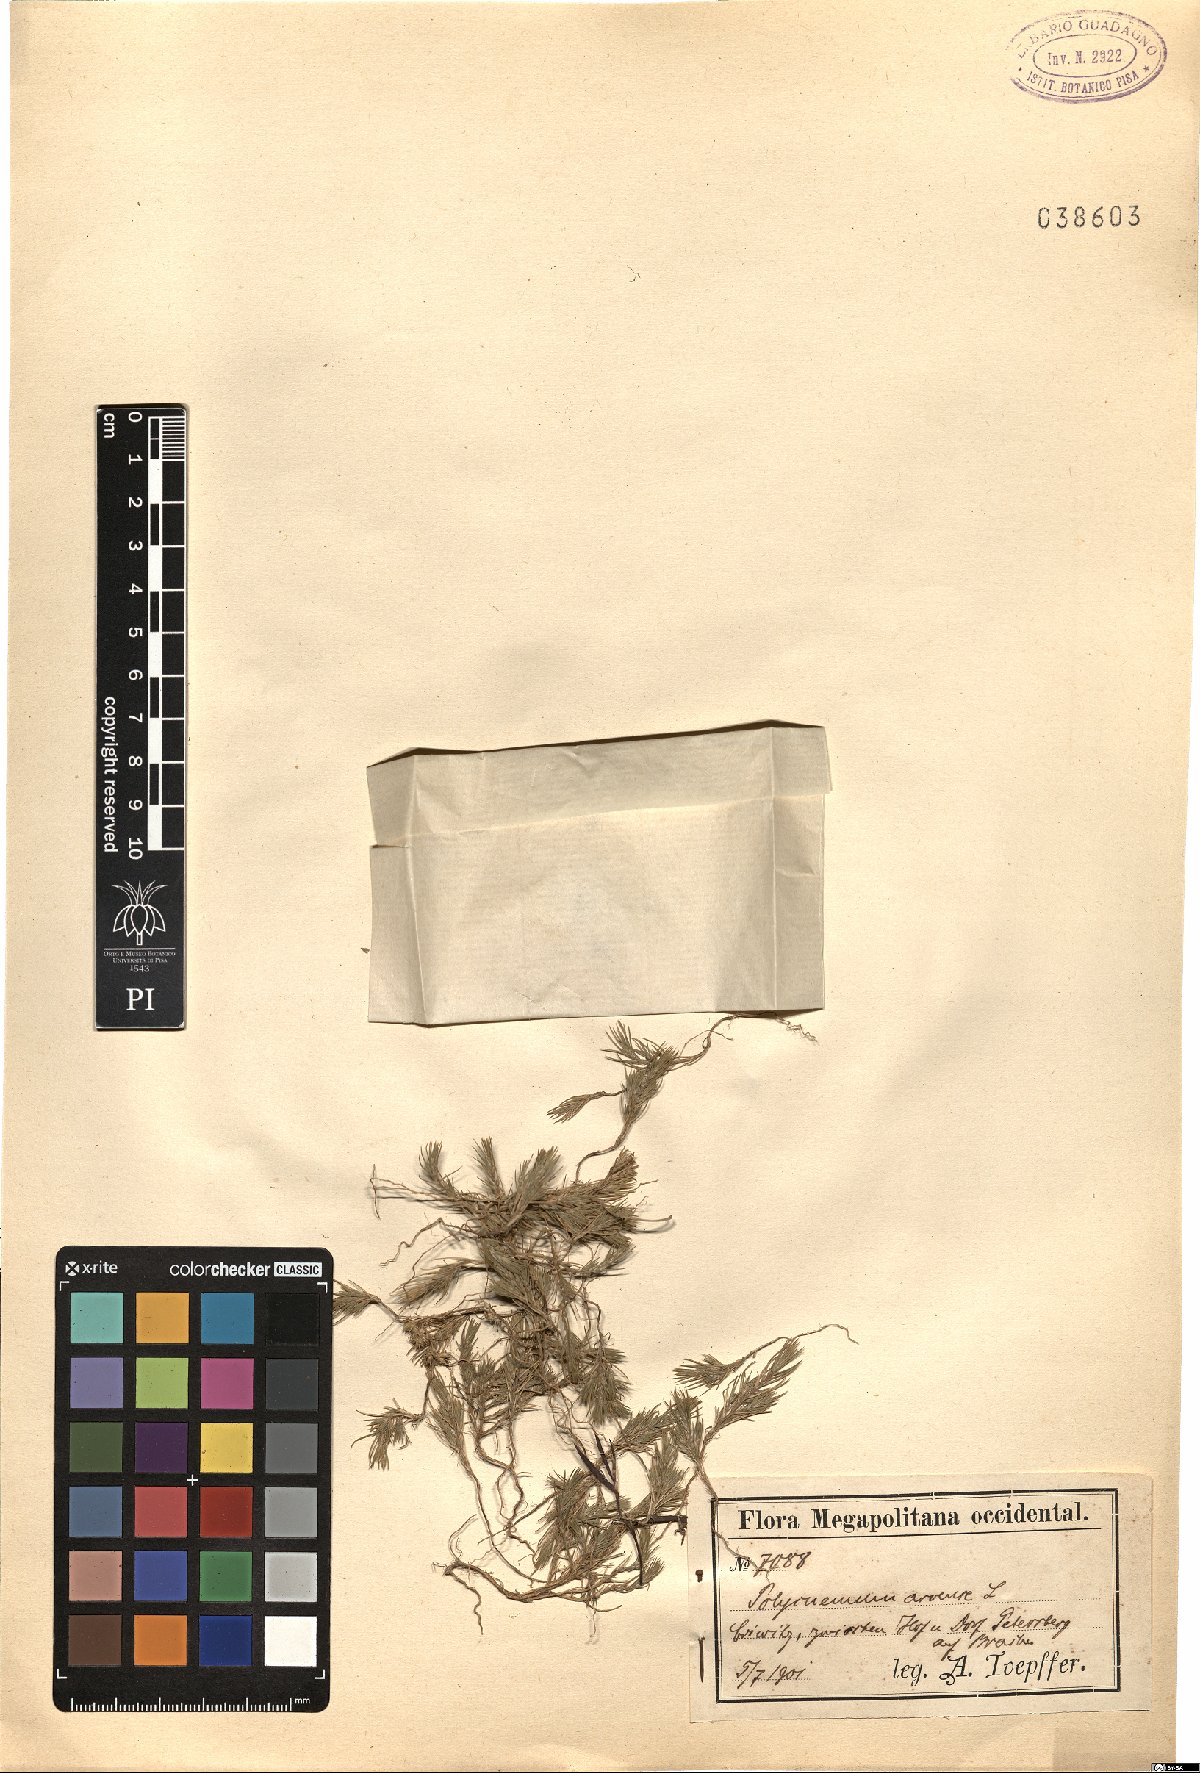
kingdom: Plantae
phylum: Tracheophyta
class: Magnoliopsida
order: Caryophyllales
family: Amaranthaceae
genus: Polycnemum
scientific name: Polycnemum arvense
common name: Soft needleleaf
